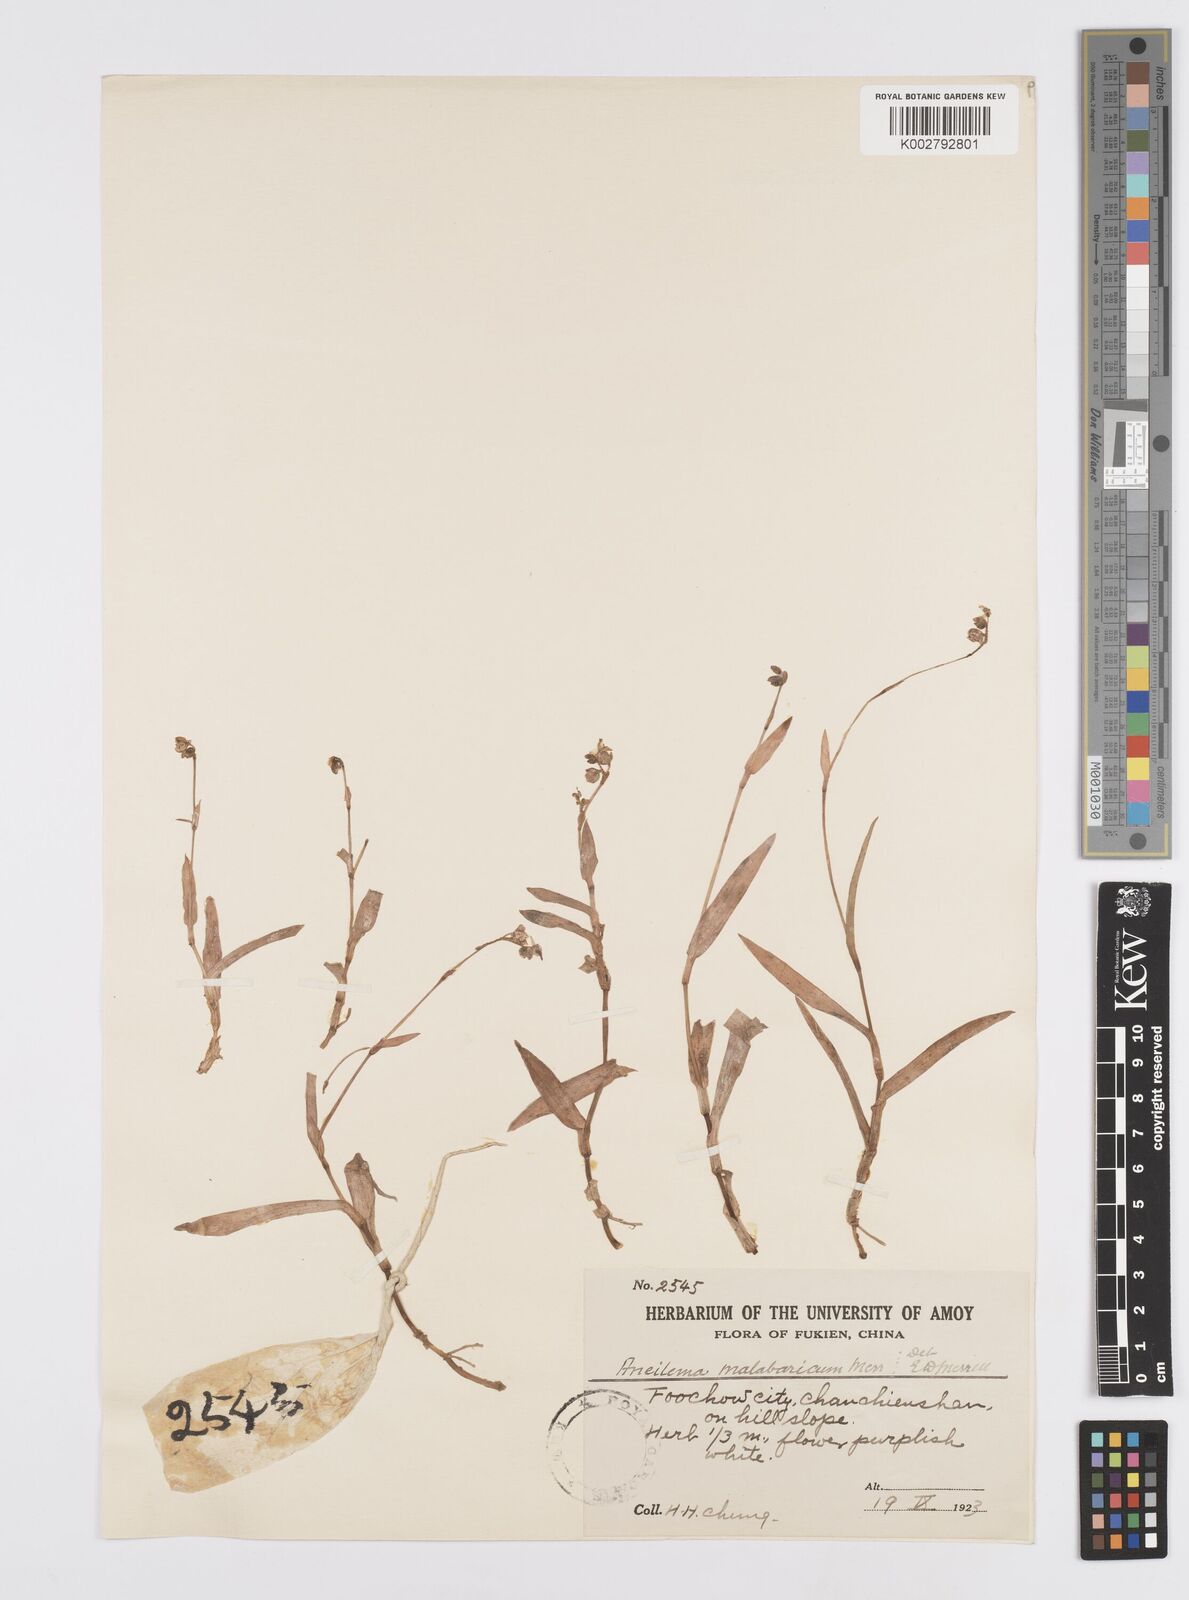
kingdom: Plantae
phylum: Tracheophyta
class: Liliopsida
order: Commelinales
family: Commelinaceae
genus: Murdannia
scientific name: Murdannia
